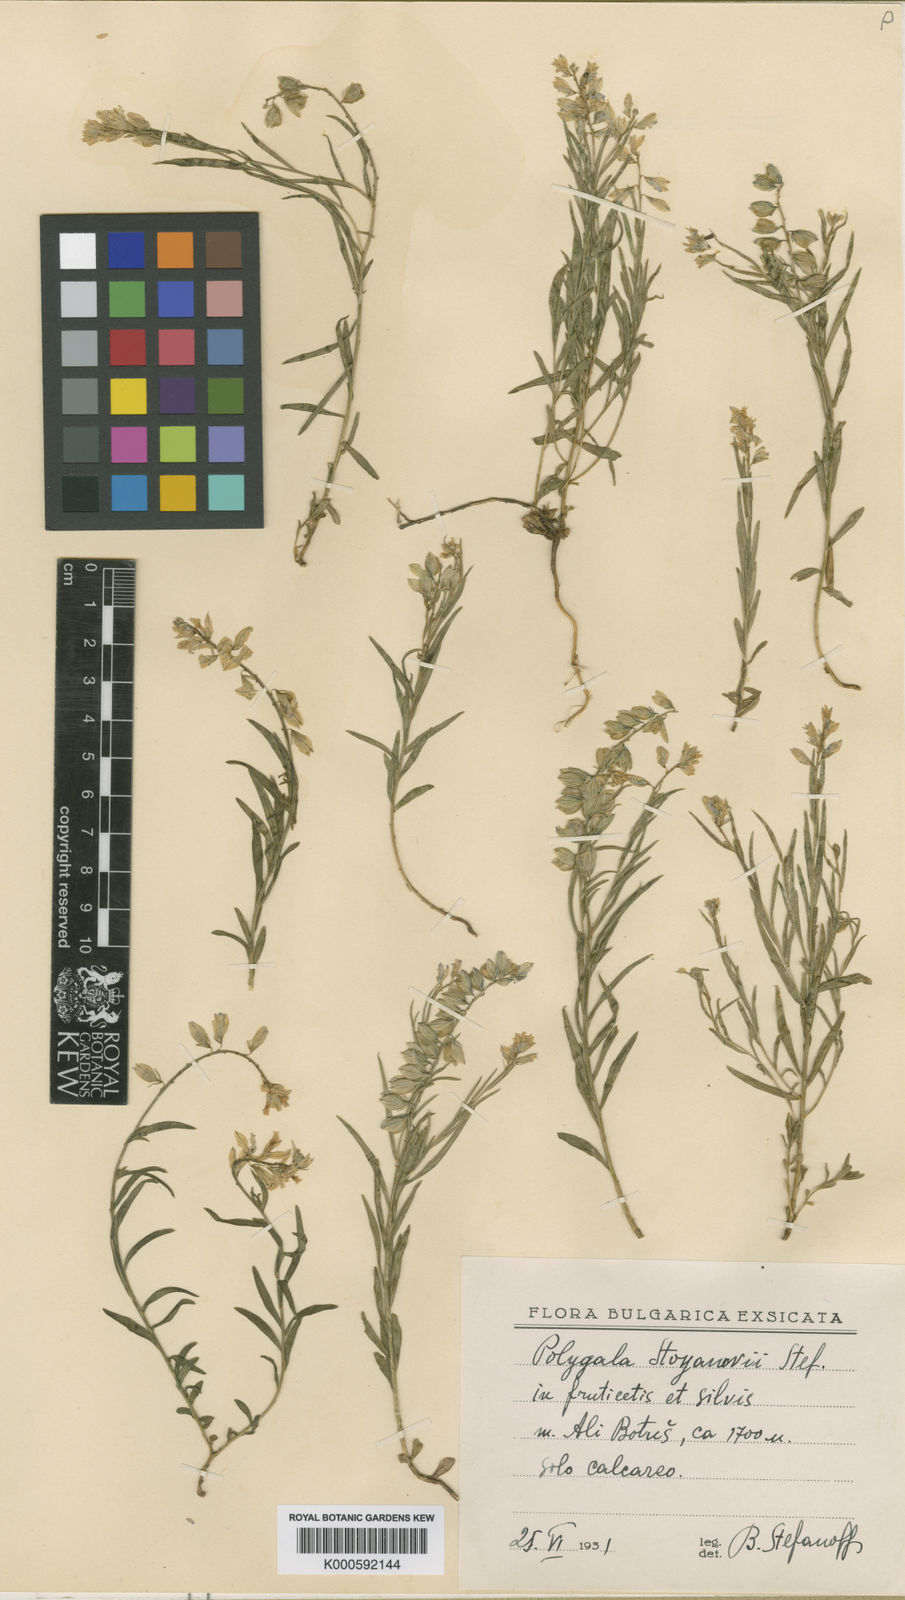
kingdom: Plantae
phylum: Tracheophyta
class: Magnoliopsida
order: Fabales
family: Polygalaceae
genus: Polygala
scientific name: Polygala
